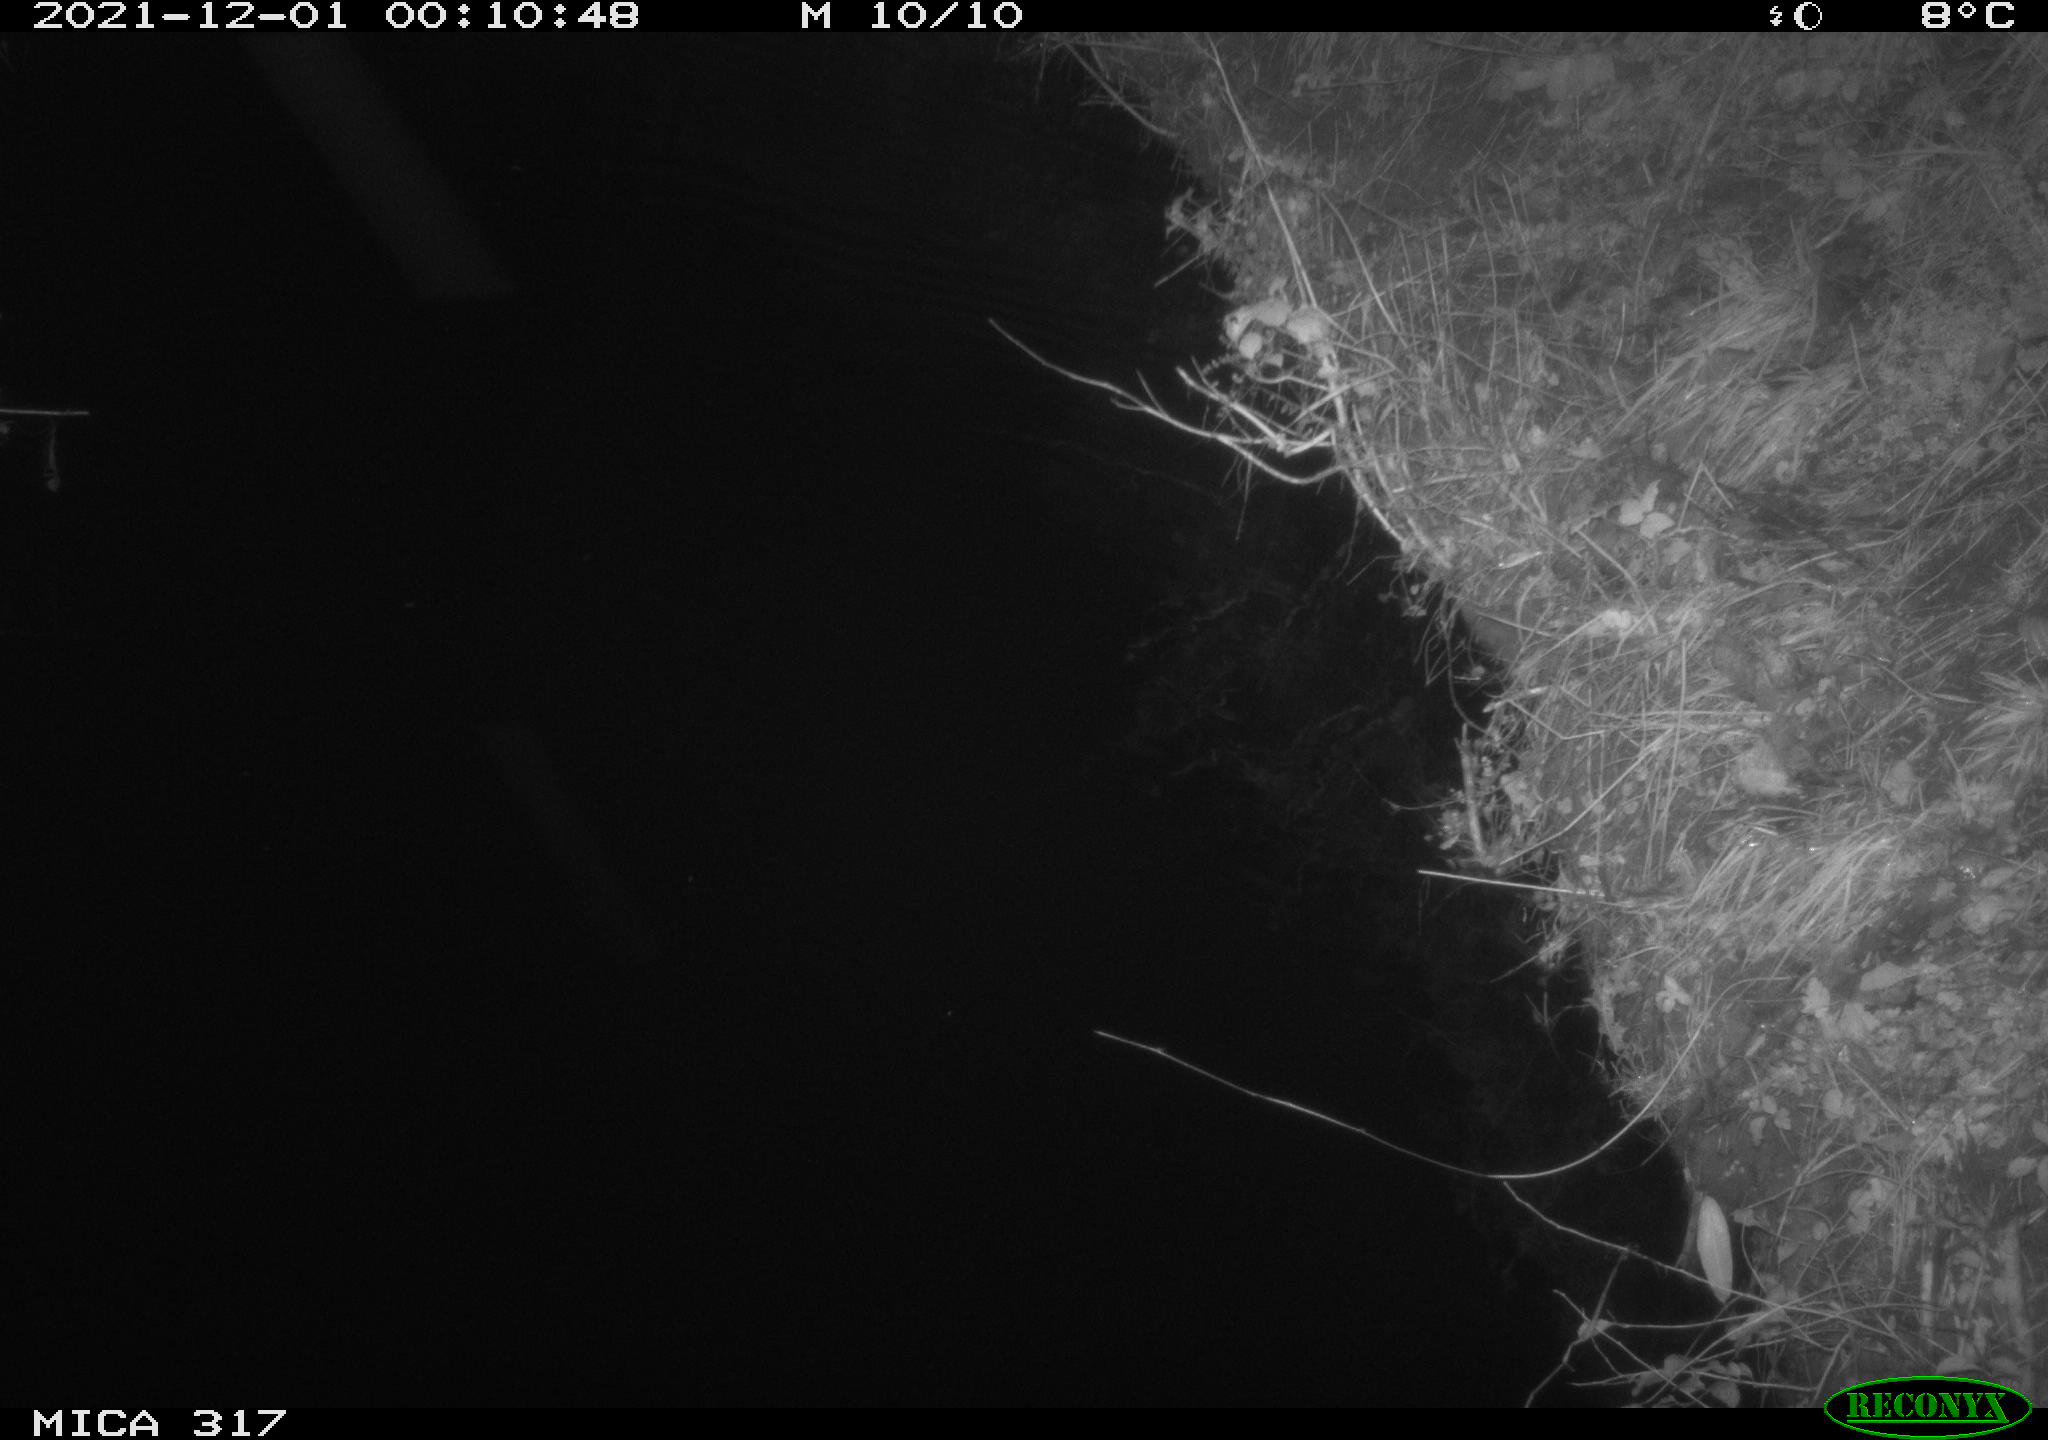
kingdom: Animalia
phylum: Chordata
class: Mammalia
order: Rodentia
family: Muridae
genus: Rattus
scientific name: Rattus norvegicus
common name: Brown rat
